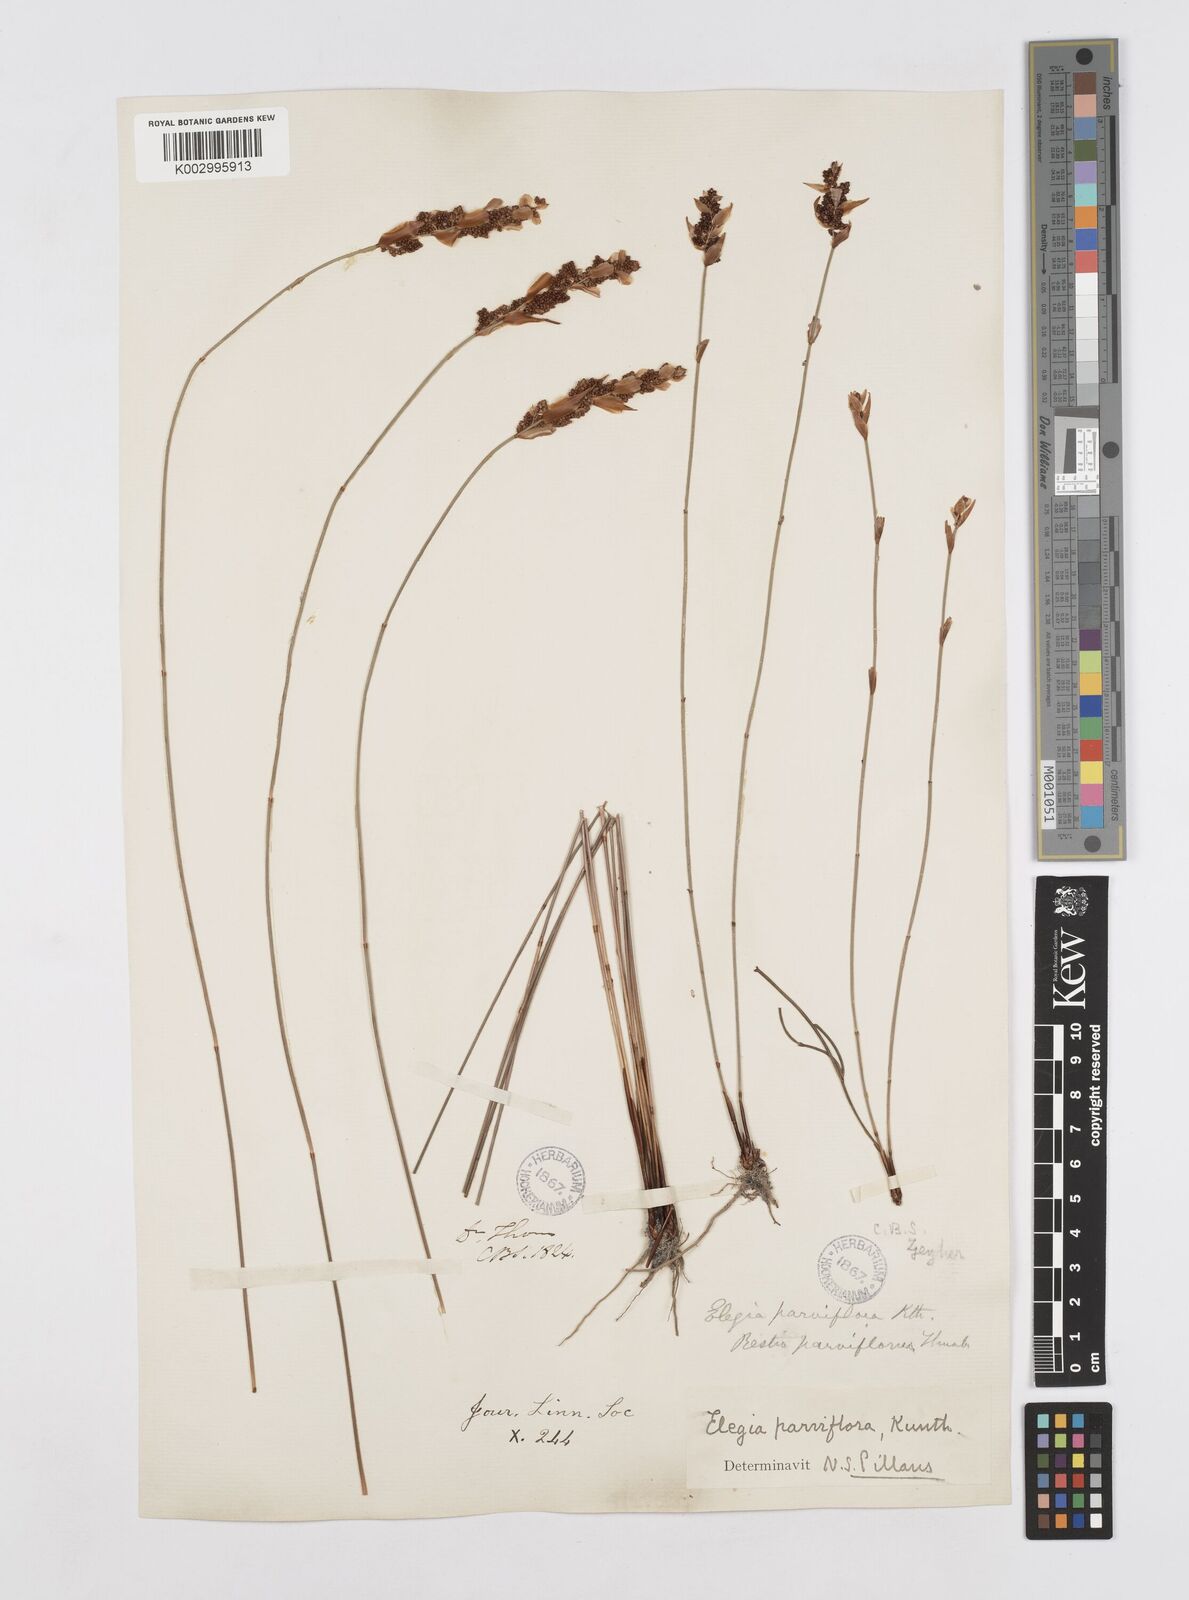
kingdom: Plantae
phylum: Tracheophyta
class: Liliopsida
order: Poales
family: Restionaceae
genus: Cannomois
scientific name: Cannomois parviflora
